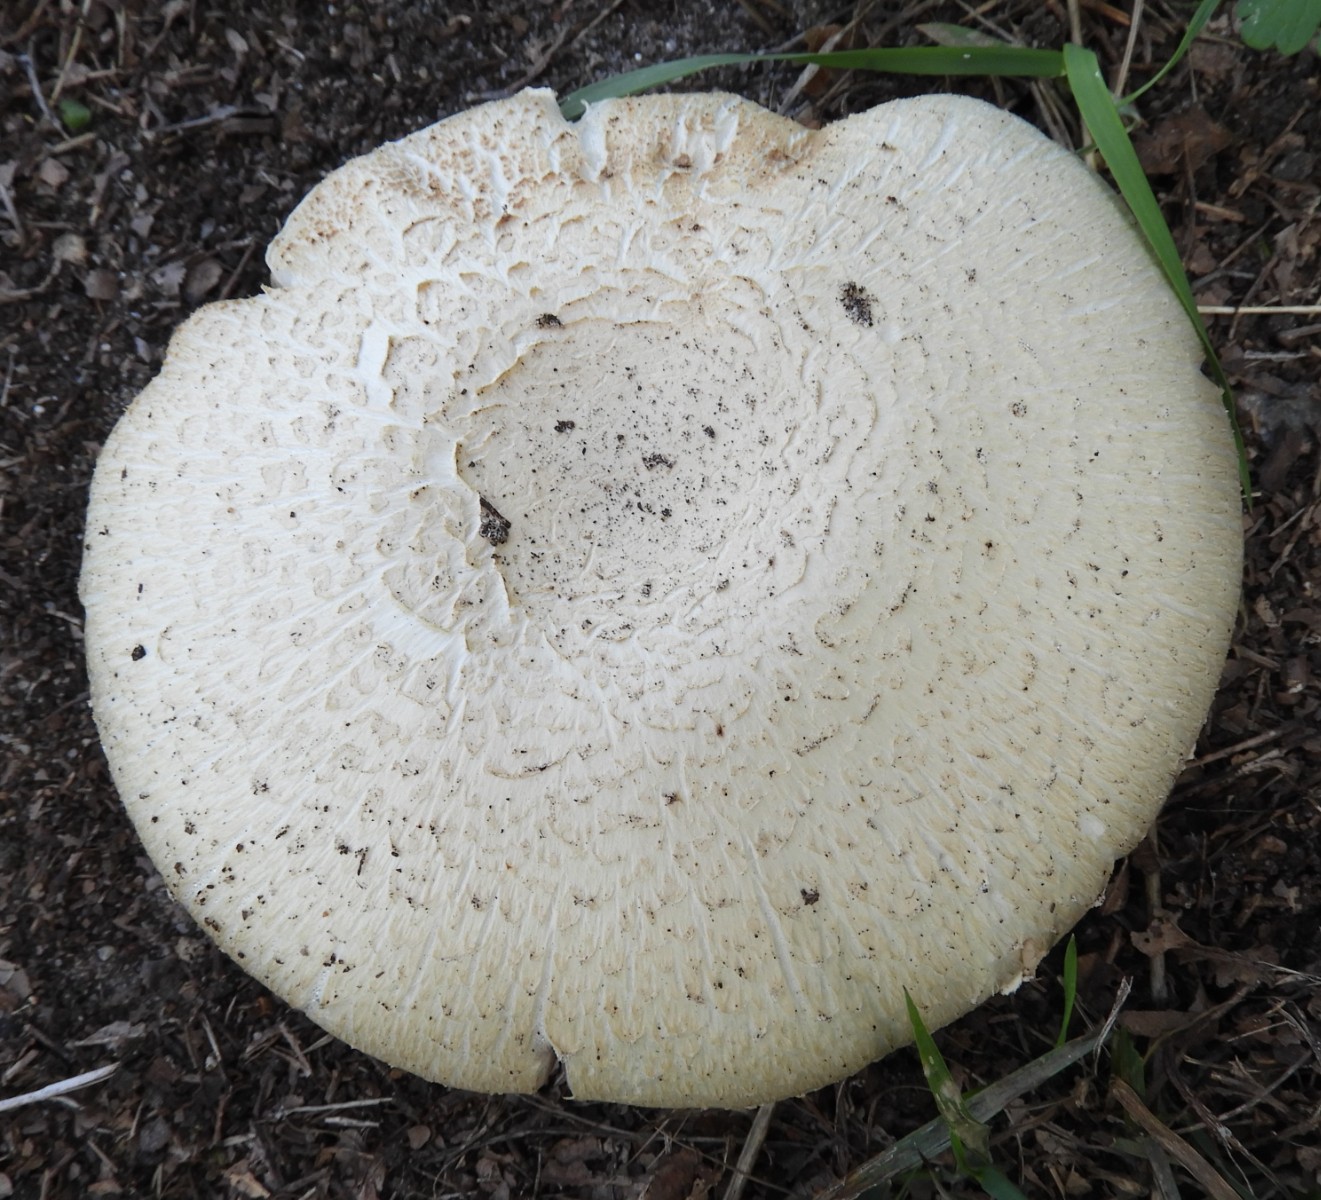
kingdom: Fungi
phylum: Basidiomycota
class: Agaricomycetes
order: Agaricales
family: Agaricaceae
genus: Agaricus
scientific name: Agaricus arvensis
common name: ager-champignon
